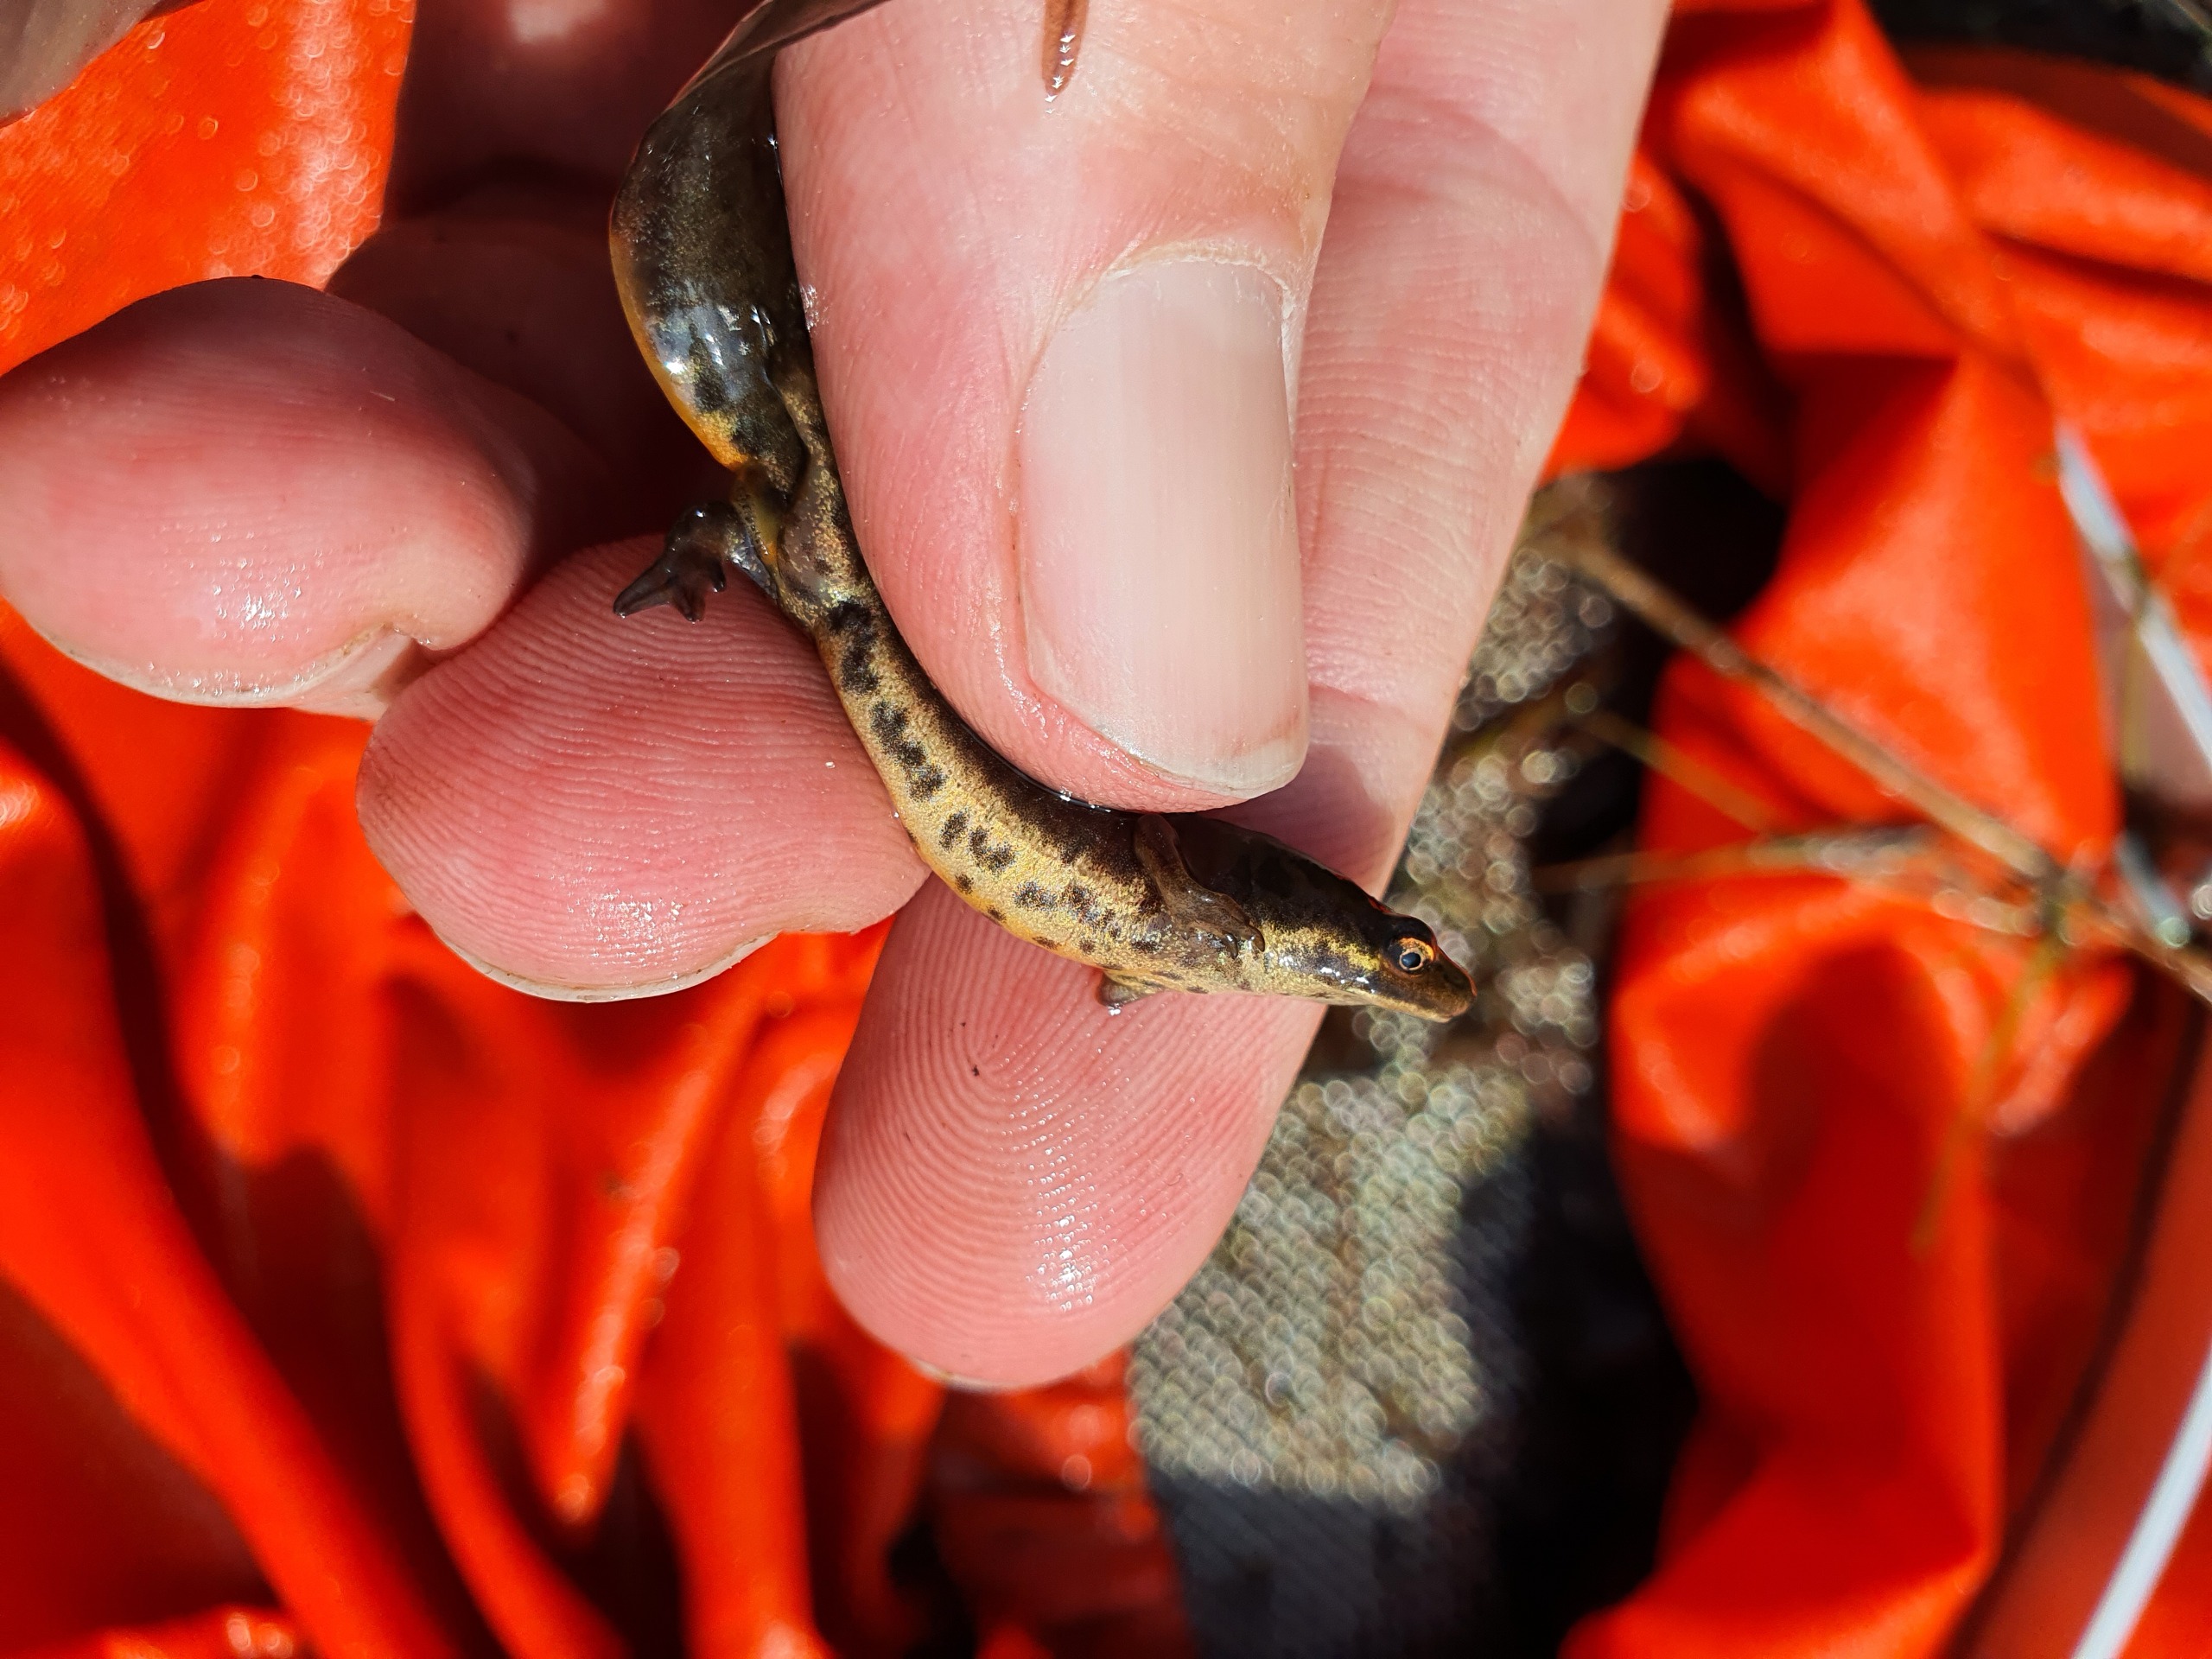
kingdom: Animalia
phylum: Chordata
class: Amphibia
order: Caudata
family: Salamandridae
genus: Lissotriton
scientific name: Lissotriton vulgaris
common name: Lille vandsalamander
